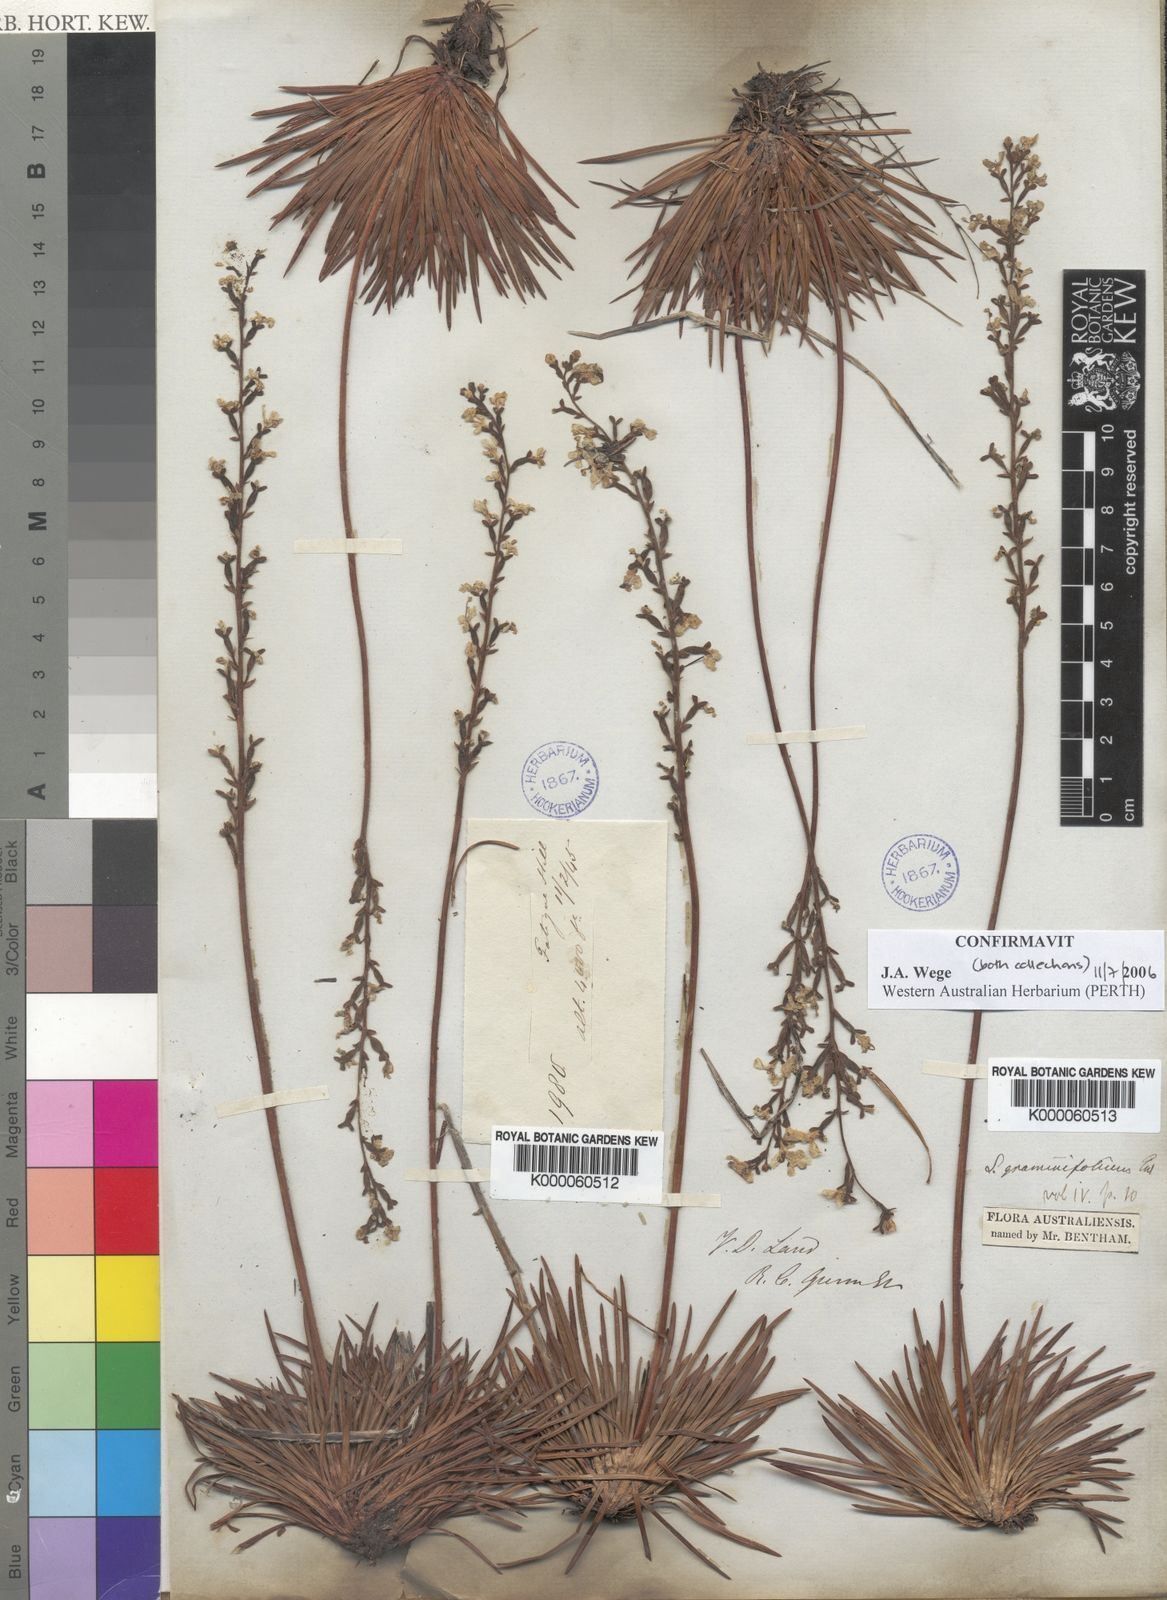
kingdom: Plantae
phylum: Tracheophyta
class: Magnoliopsida
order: Asterales
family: Stylidiaceae
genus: Stylidium
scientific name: Stylidium graminifolium
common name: Grass triggerplant
